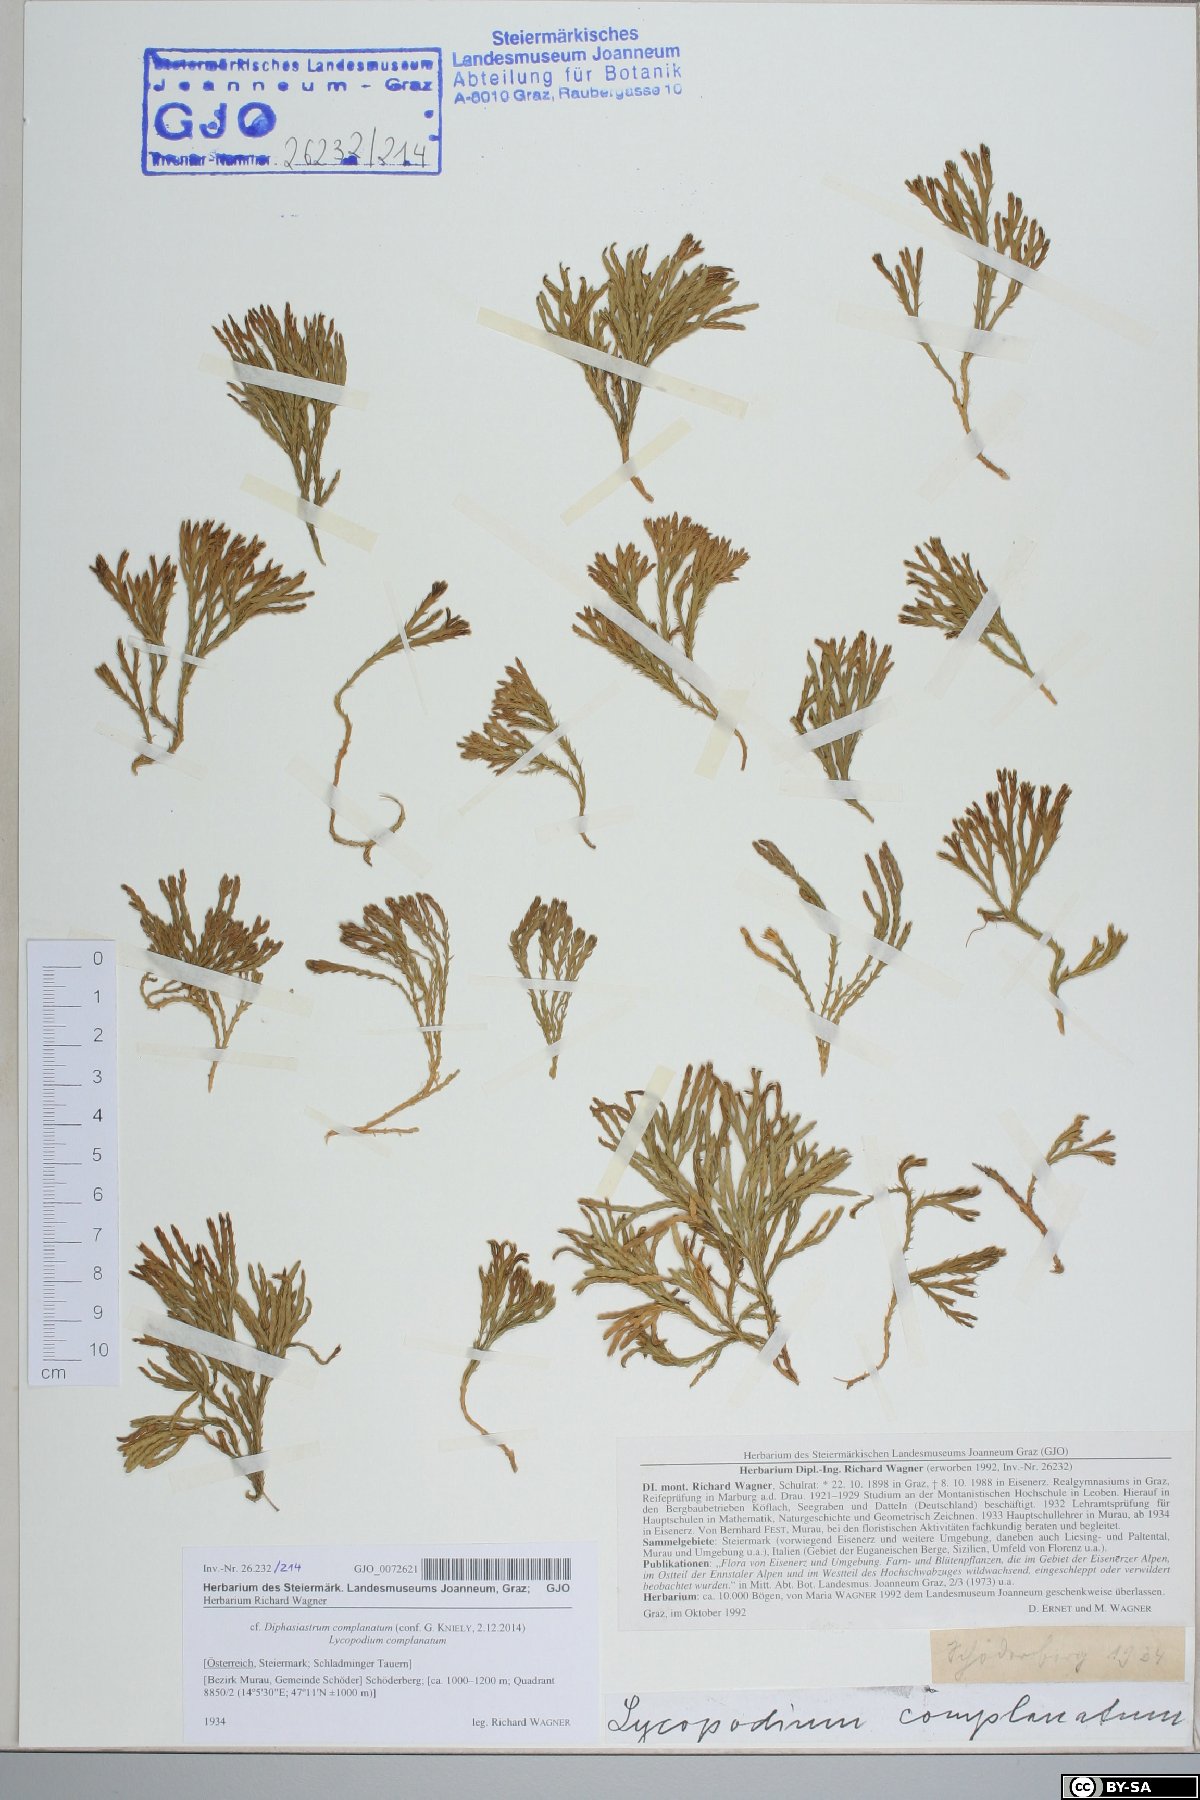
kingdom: Plantae
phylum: Tracheophyta
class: Lycopodiopsida
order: Lycopodiales
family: Lycopodiaceae
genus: Diphasiastrum
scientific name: Diphasiastrum complanatum
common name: Northern running-pine
